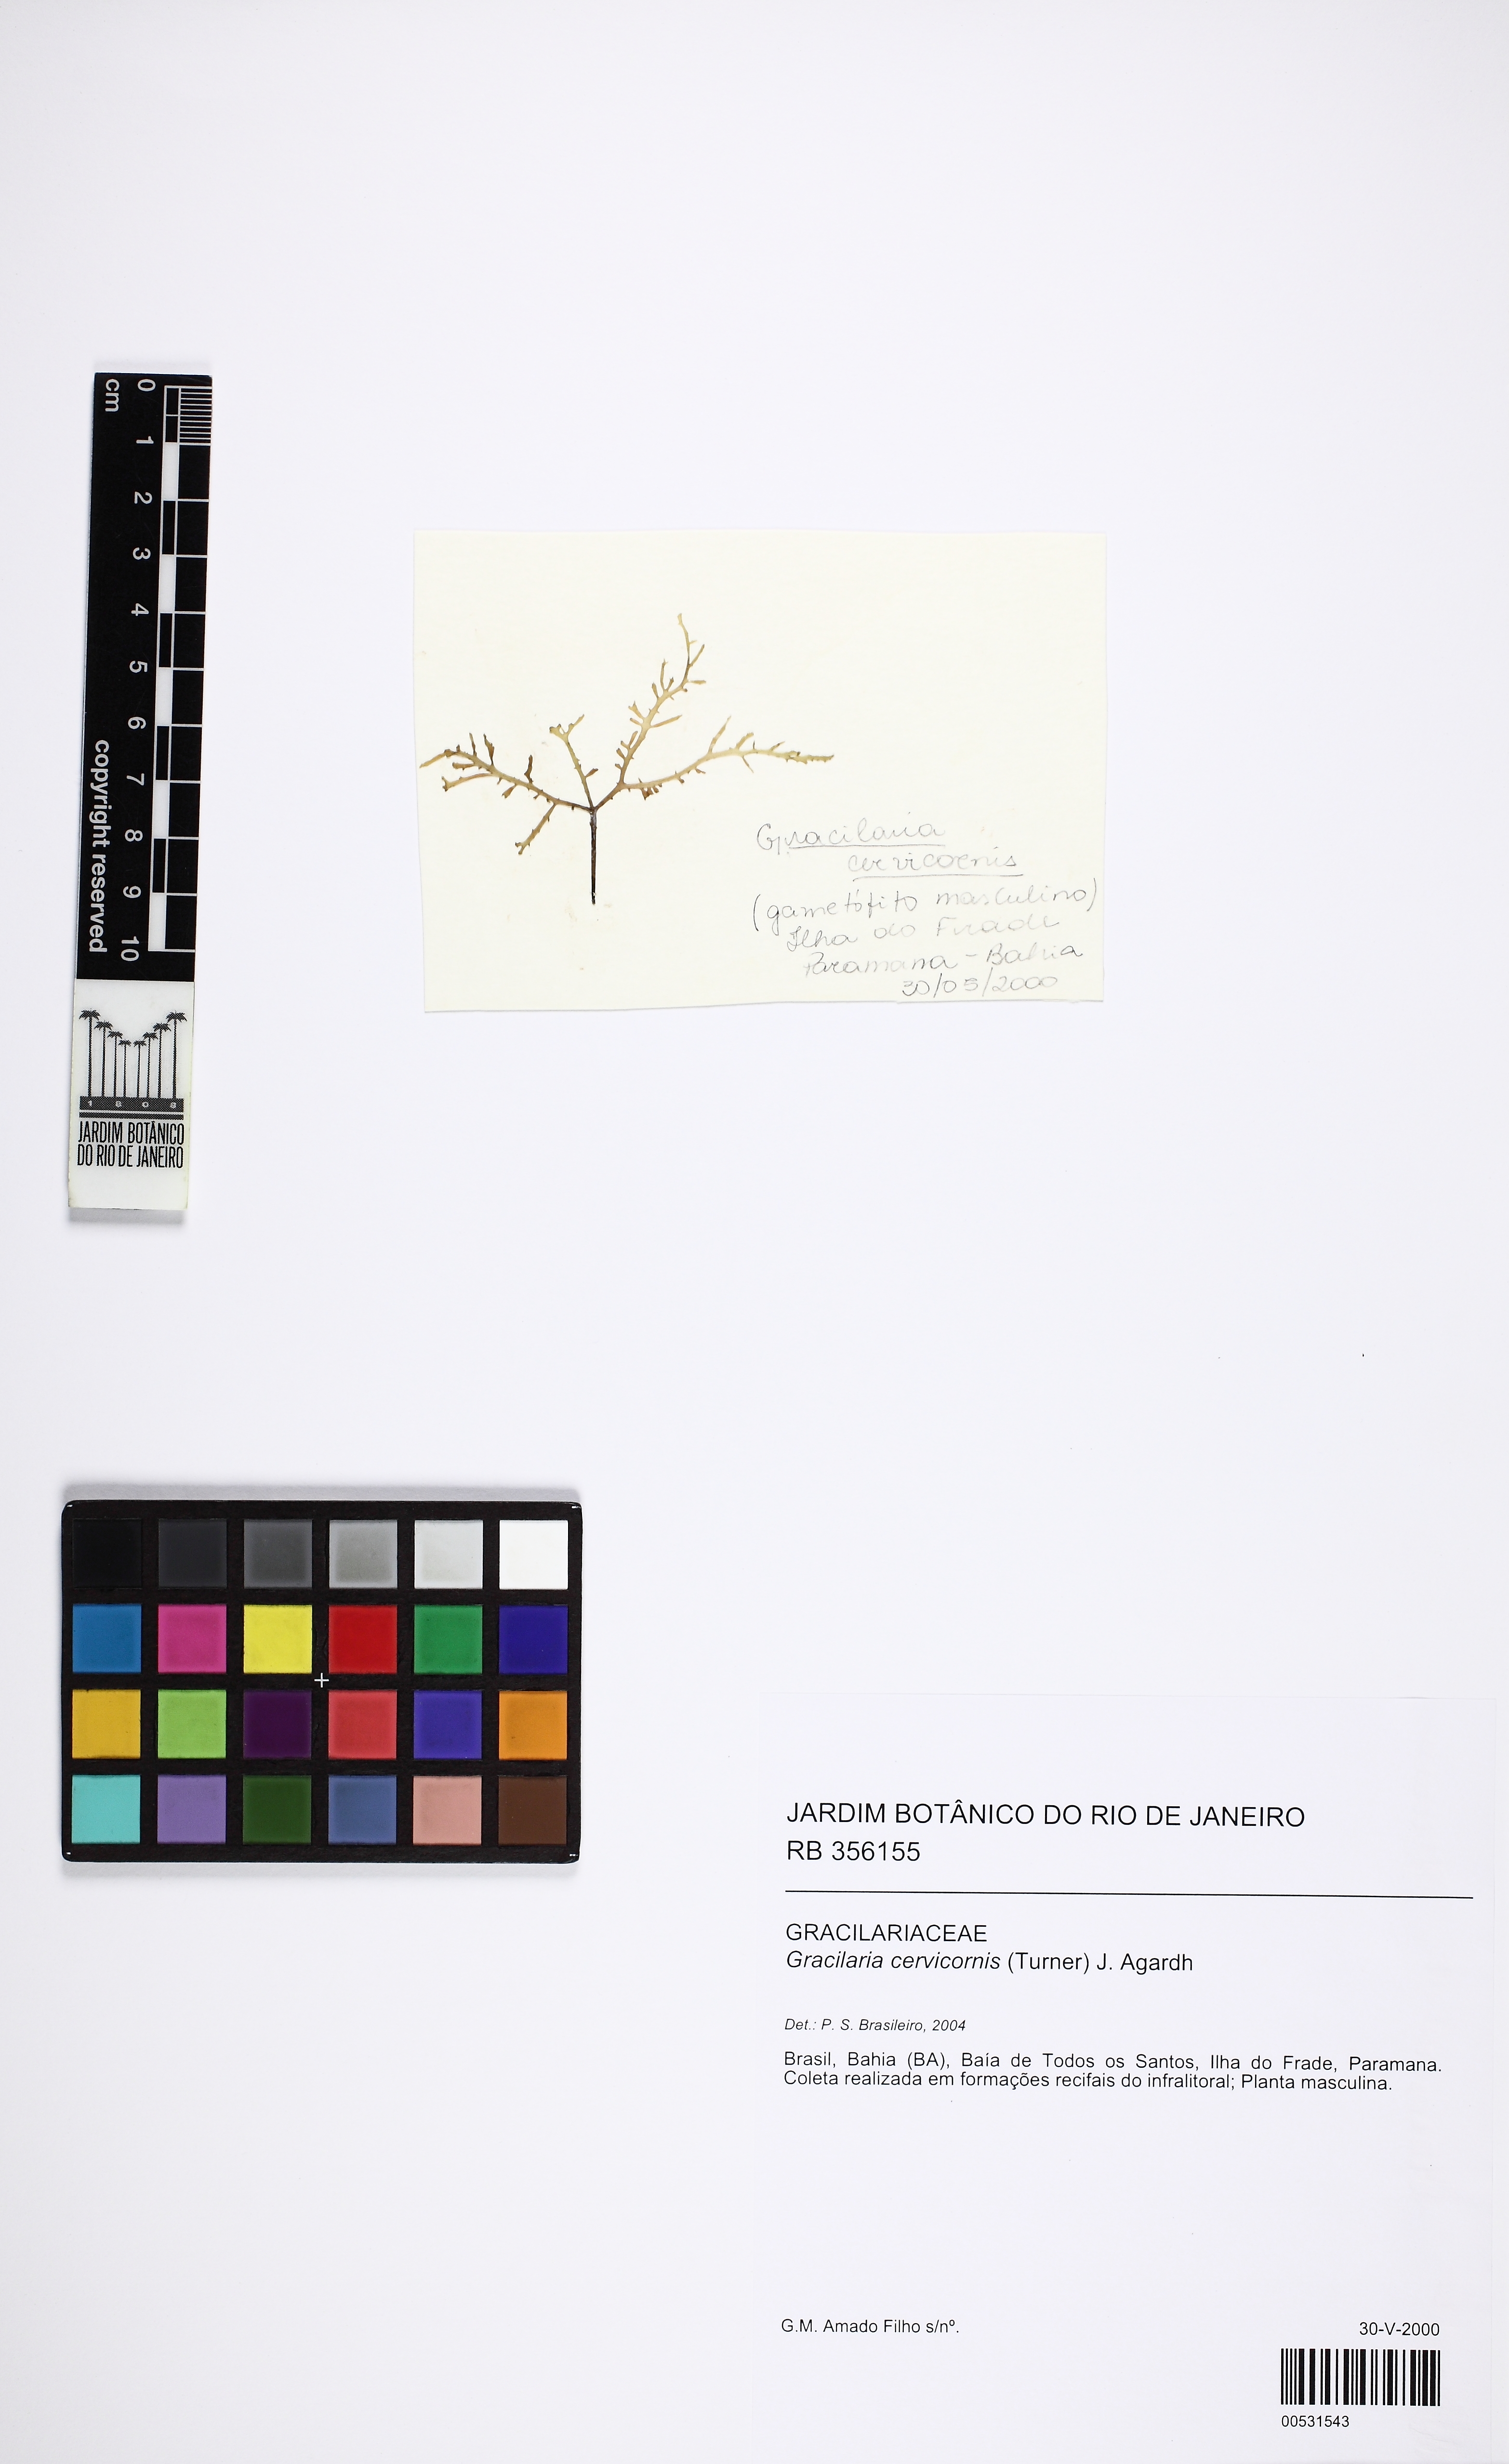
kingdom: Plantae
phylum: Rhodophyta
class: Florideophyceae
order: Gracilariales
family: Gracilariaceae
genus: Gracilaria
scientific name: Gracilaria cervicornis
